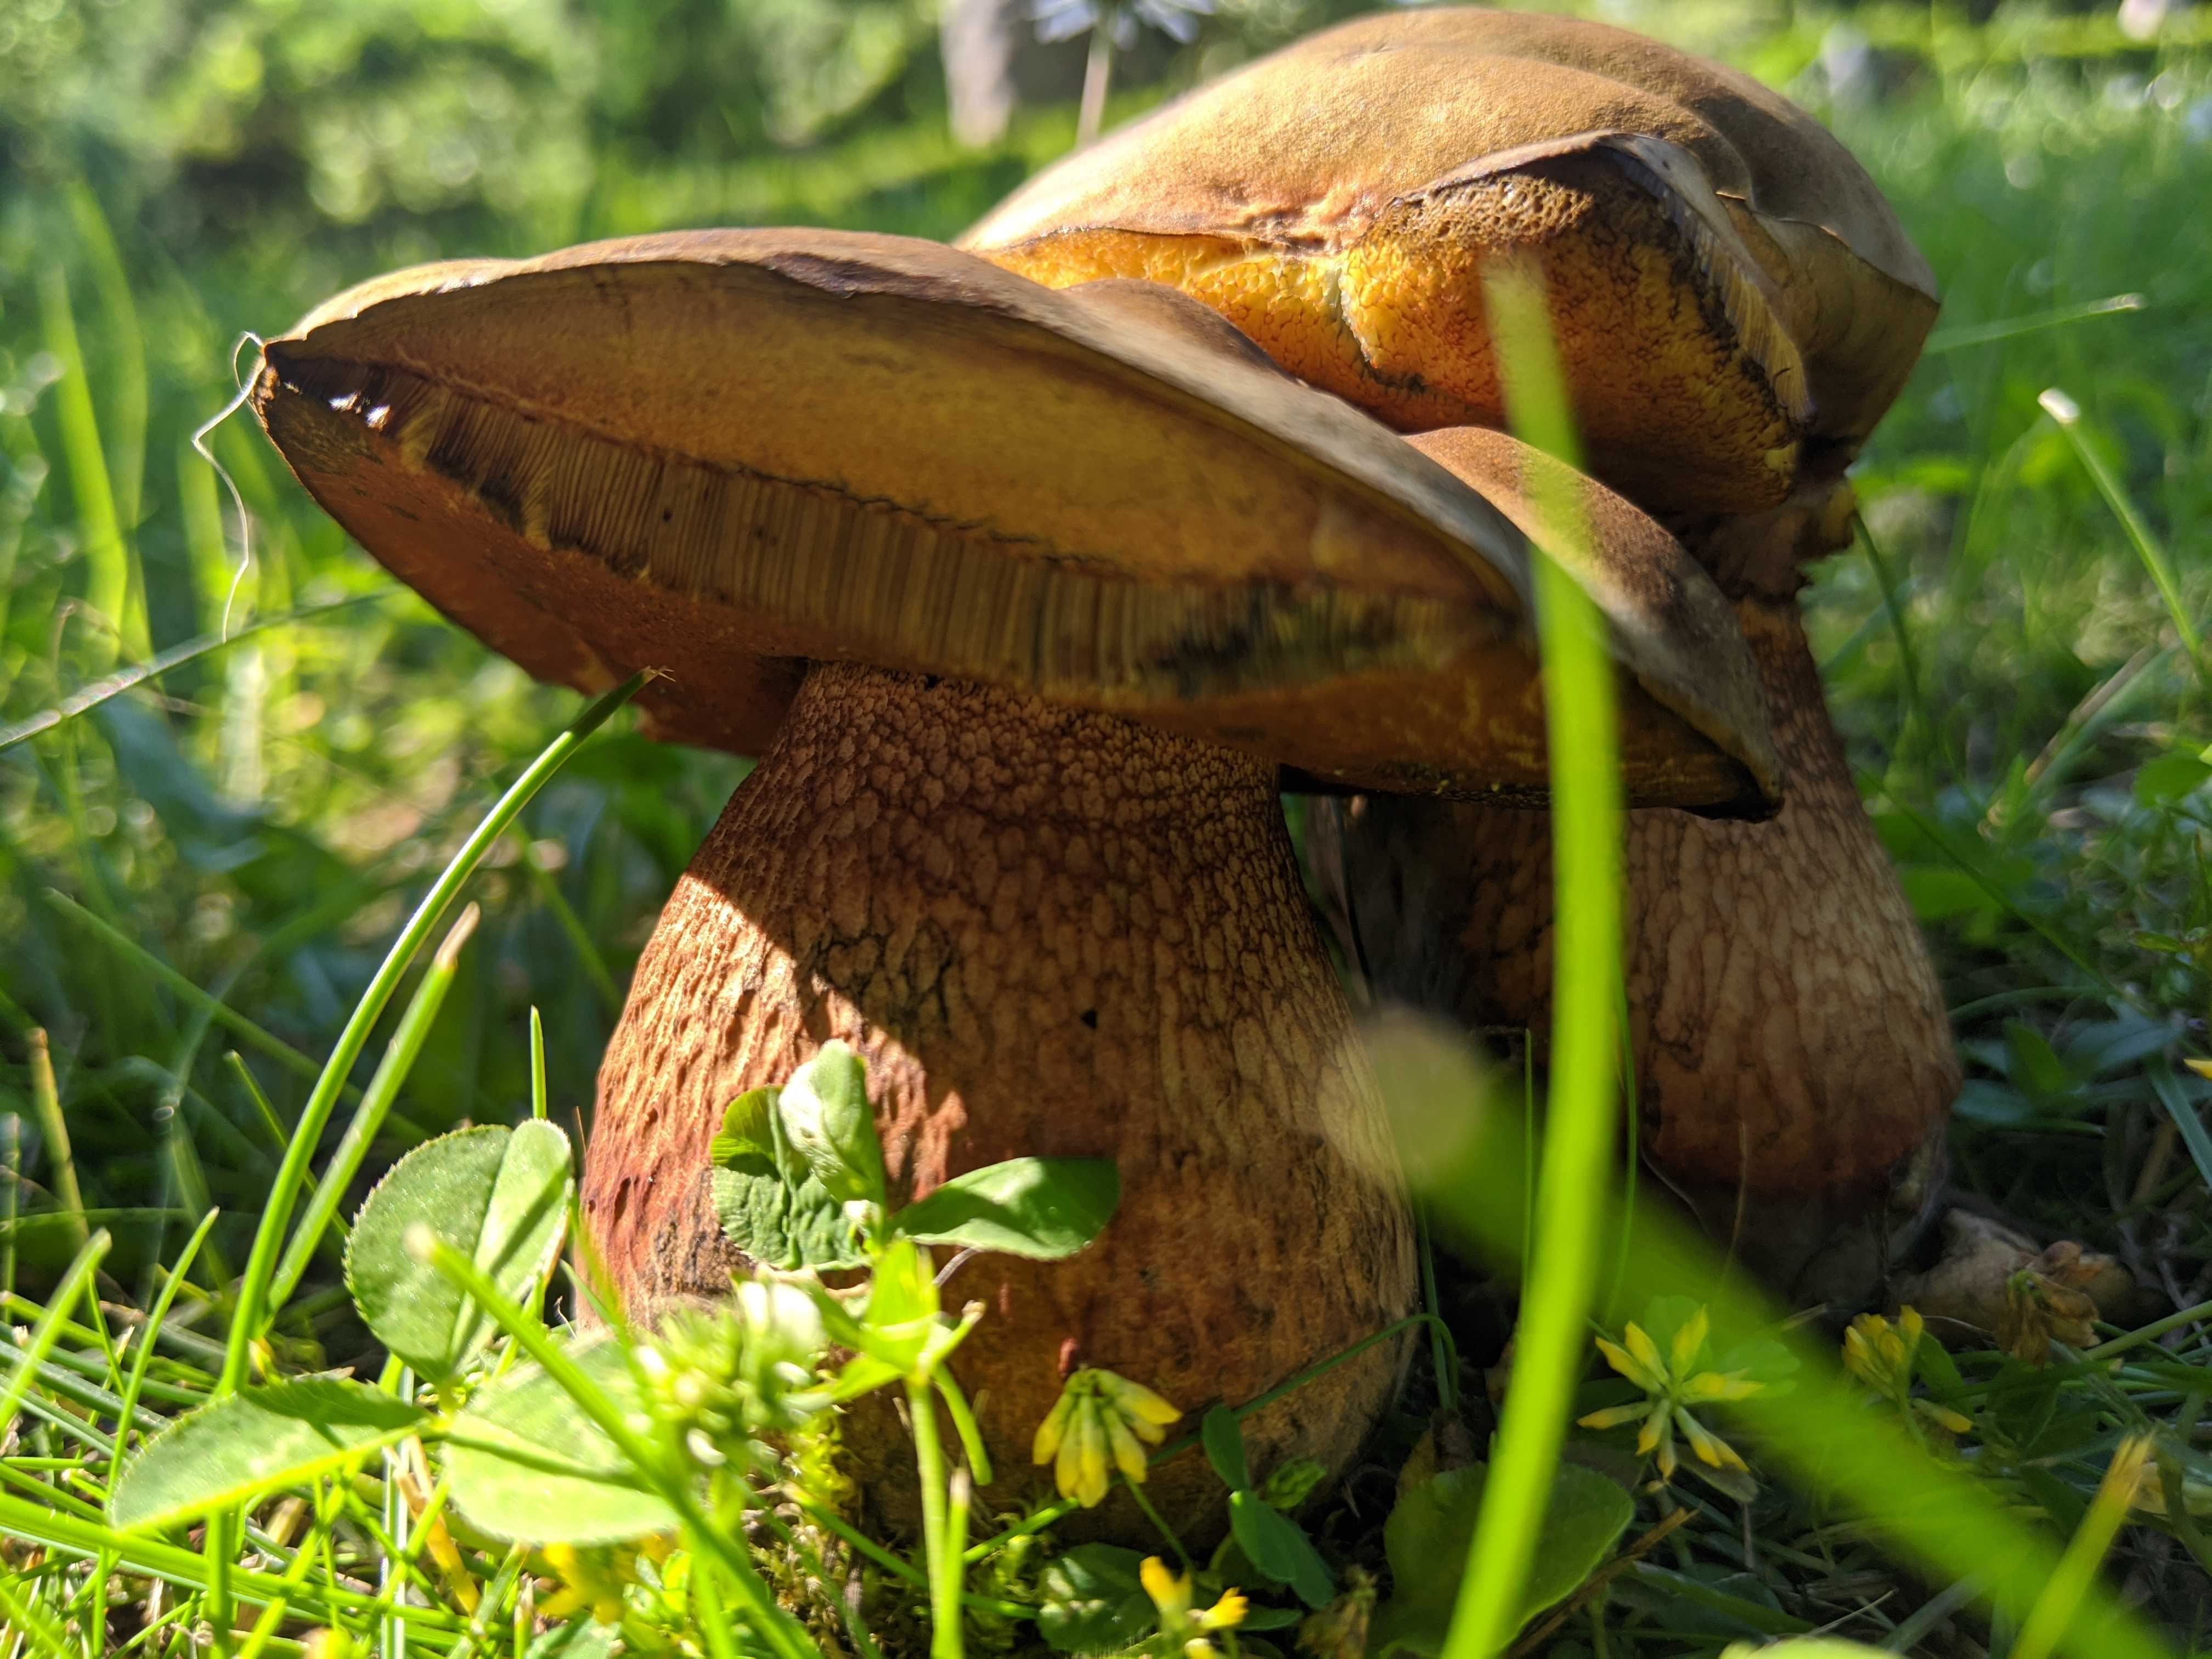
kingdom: Fungi
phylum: Basidiomycota
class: Agaricomycetes
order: Boletales
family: Boletaceae
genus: Suillellus
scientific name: Suillellus luridus
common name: netstokket indigorørhat
